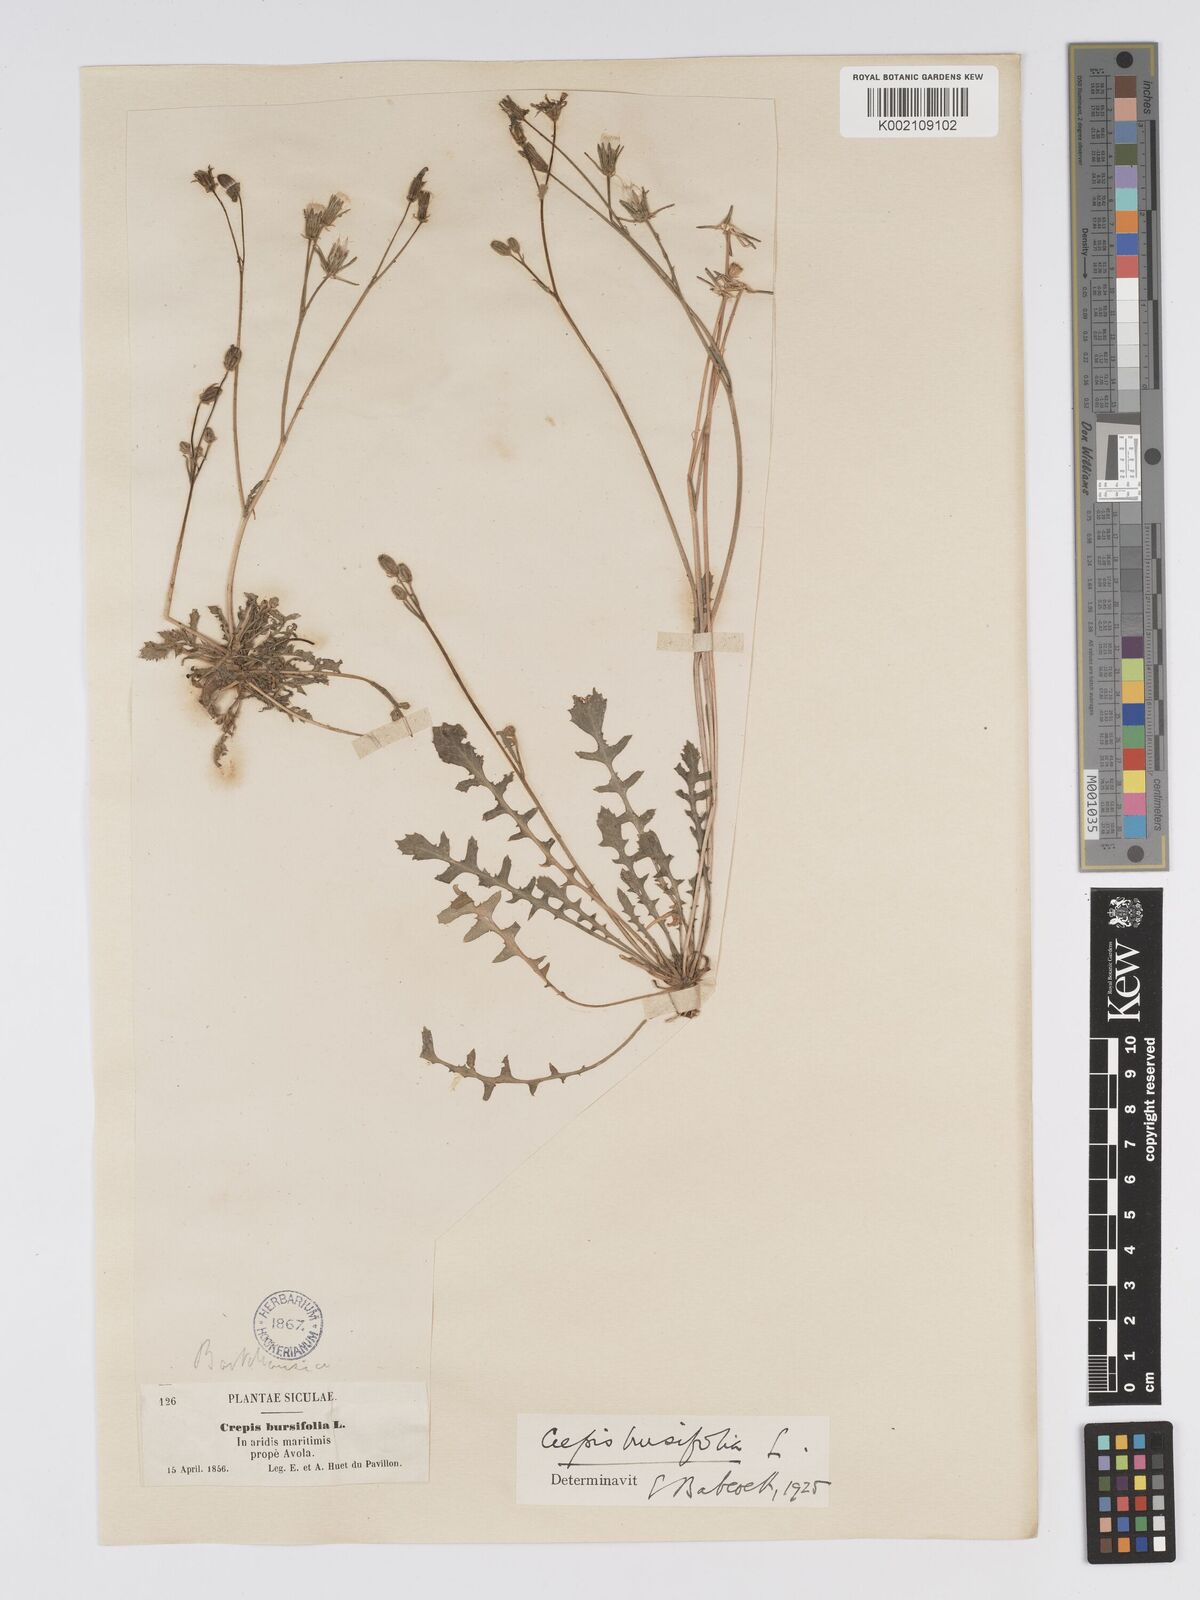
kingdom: Plantae
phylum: Tracheophyta
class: Magnoliopsida
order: Asterales
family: Asteraceae
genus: Crepis
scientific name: Crepis bursifolia
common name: Italian hawksbeard
